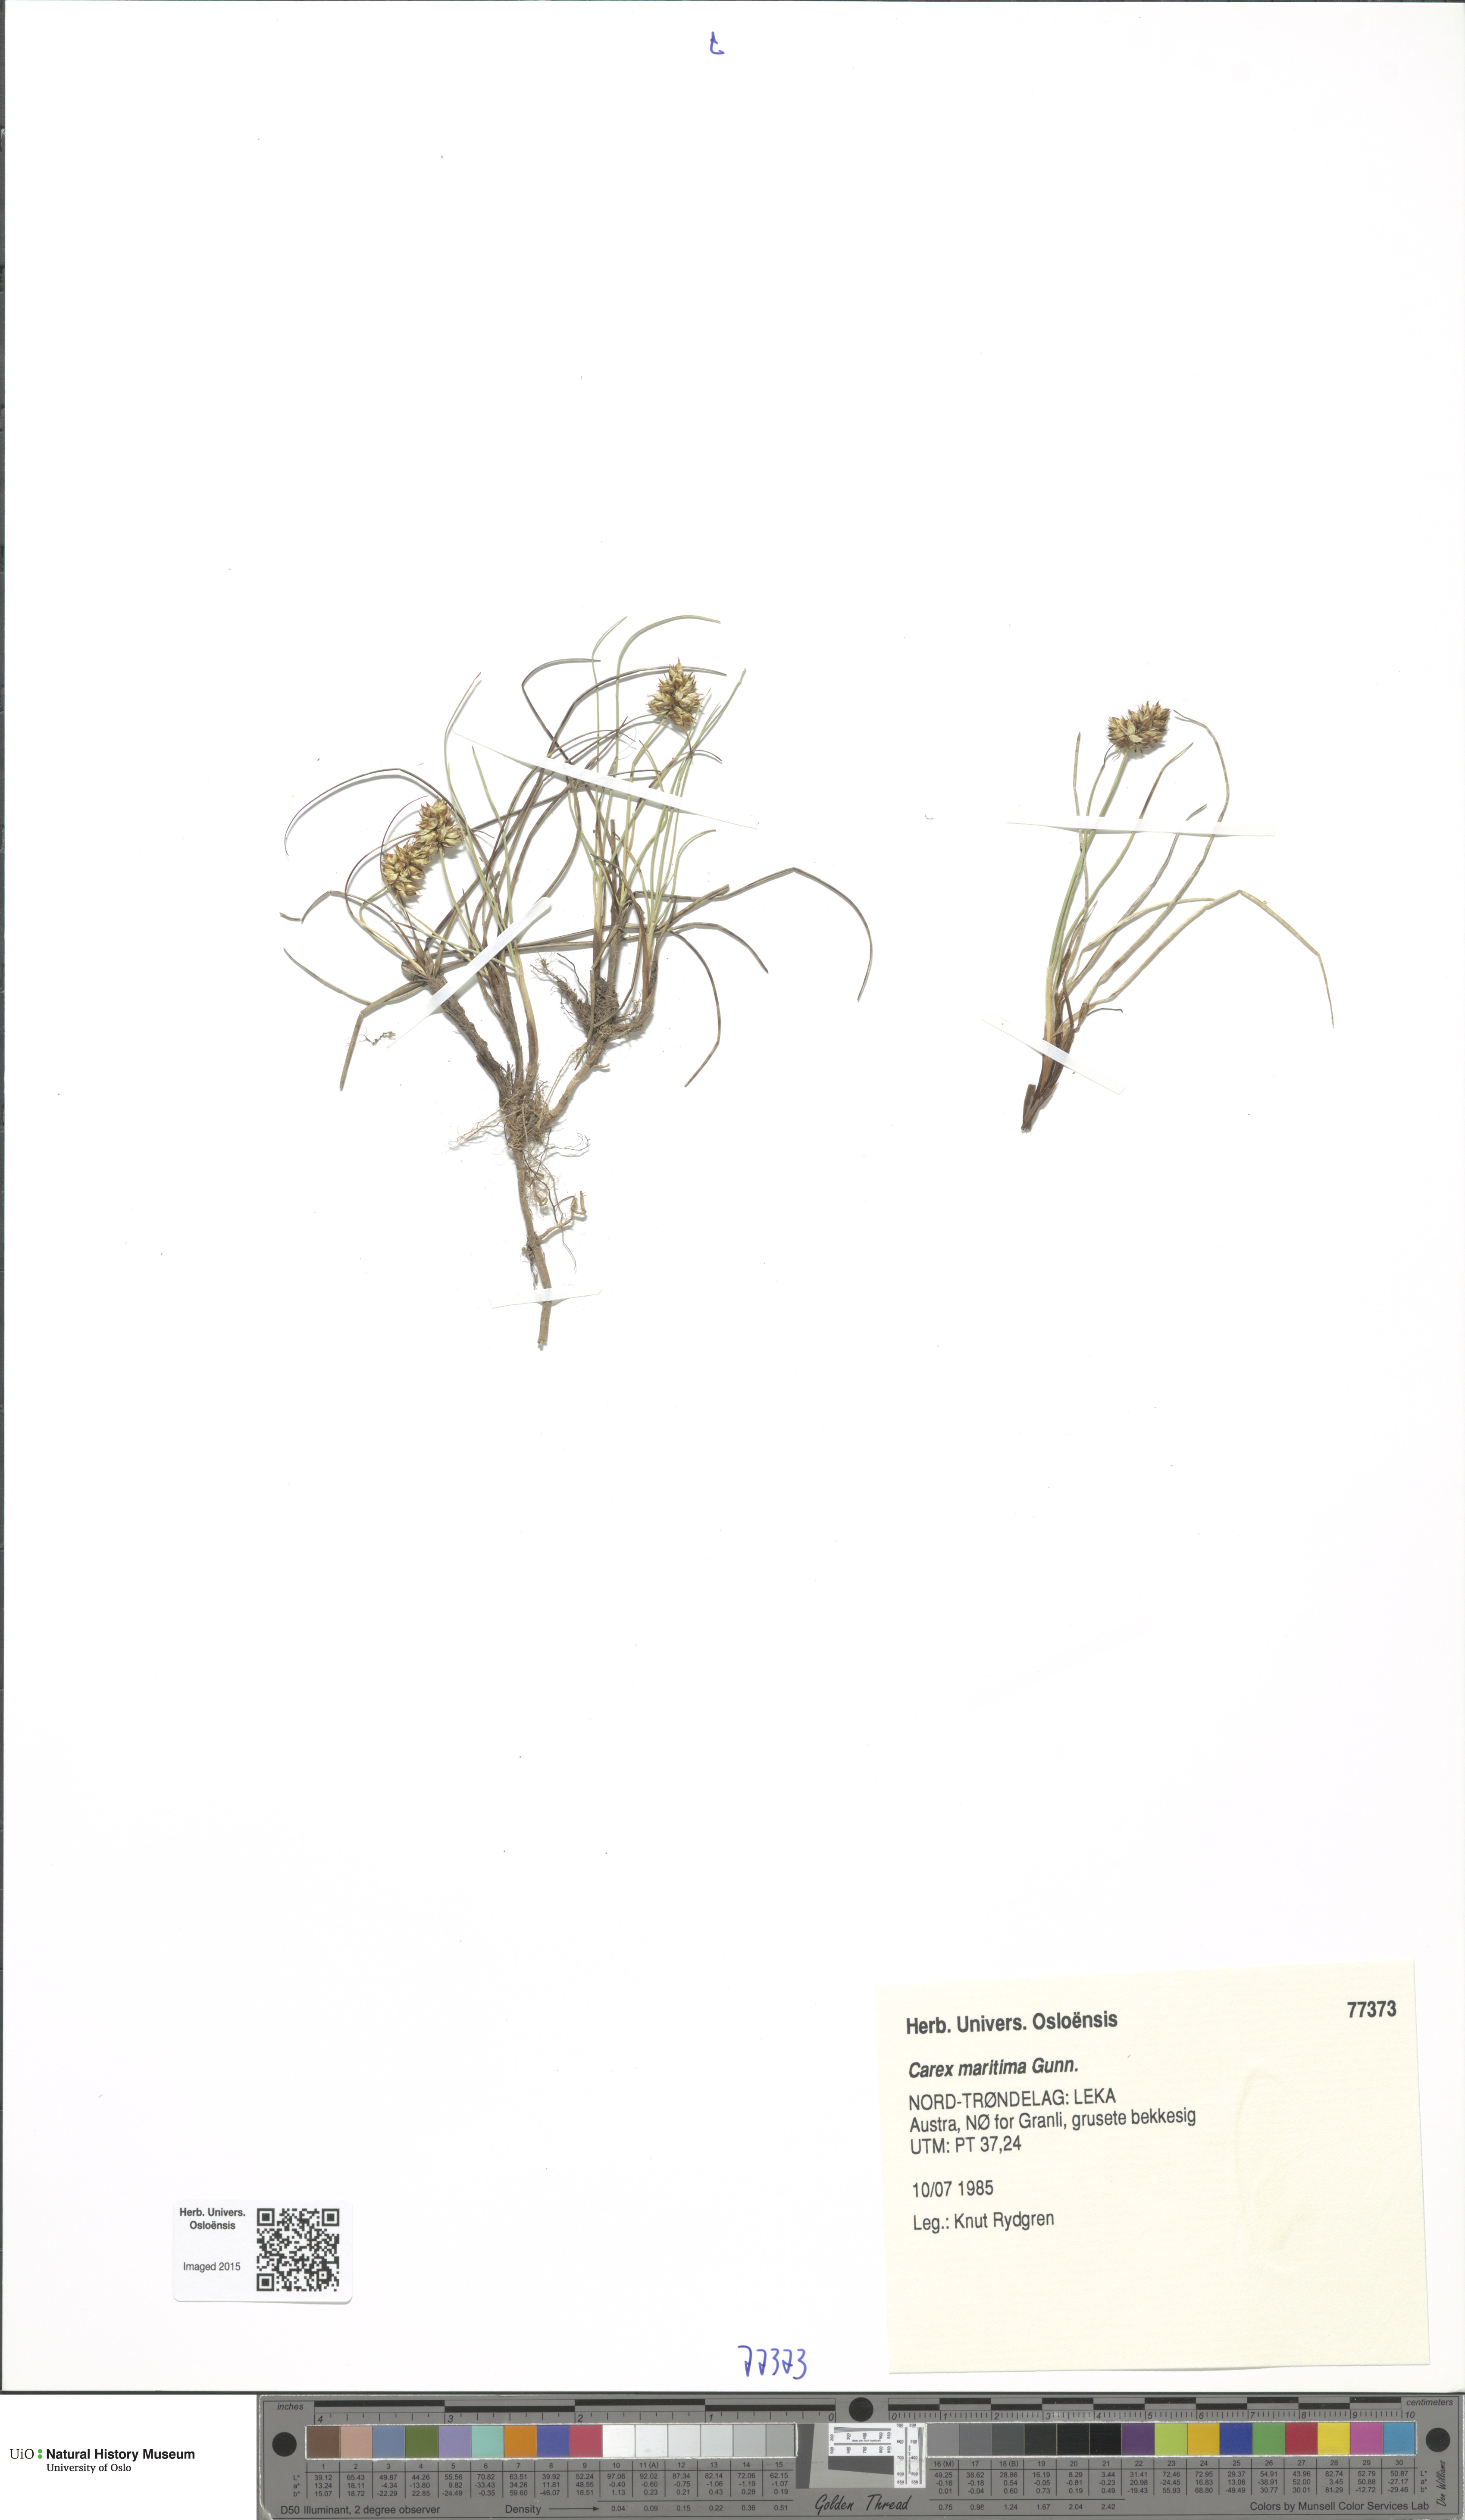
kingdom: Plantae
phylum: Tracheophyta
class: Liliopsida
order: Poales
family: Cyperaceae
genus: Carex
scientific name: Carex maritima
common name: Curved sedge
